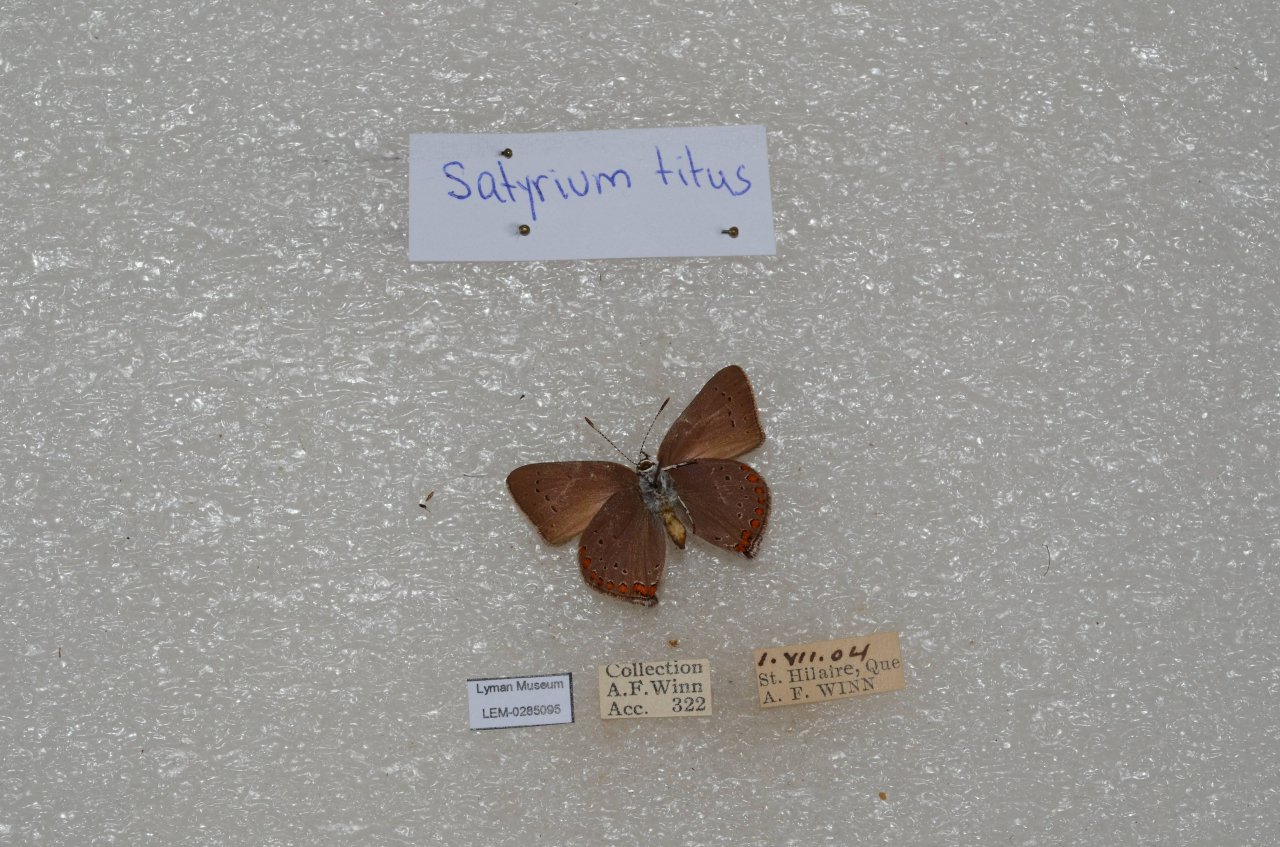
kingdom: Animalia
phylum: Arthropoda
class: Insecta
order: Lepidoptera
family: Lycaenidae
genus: Harkenclenus
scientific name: Harkenclenus titus
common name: Coral Hairstreak
